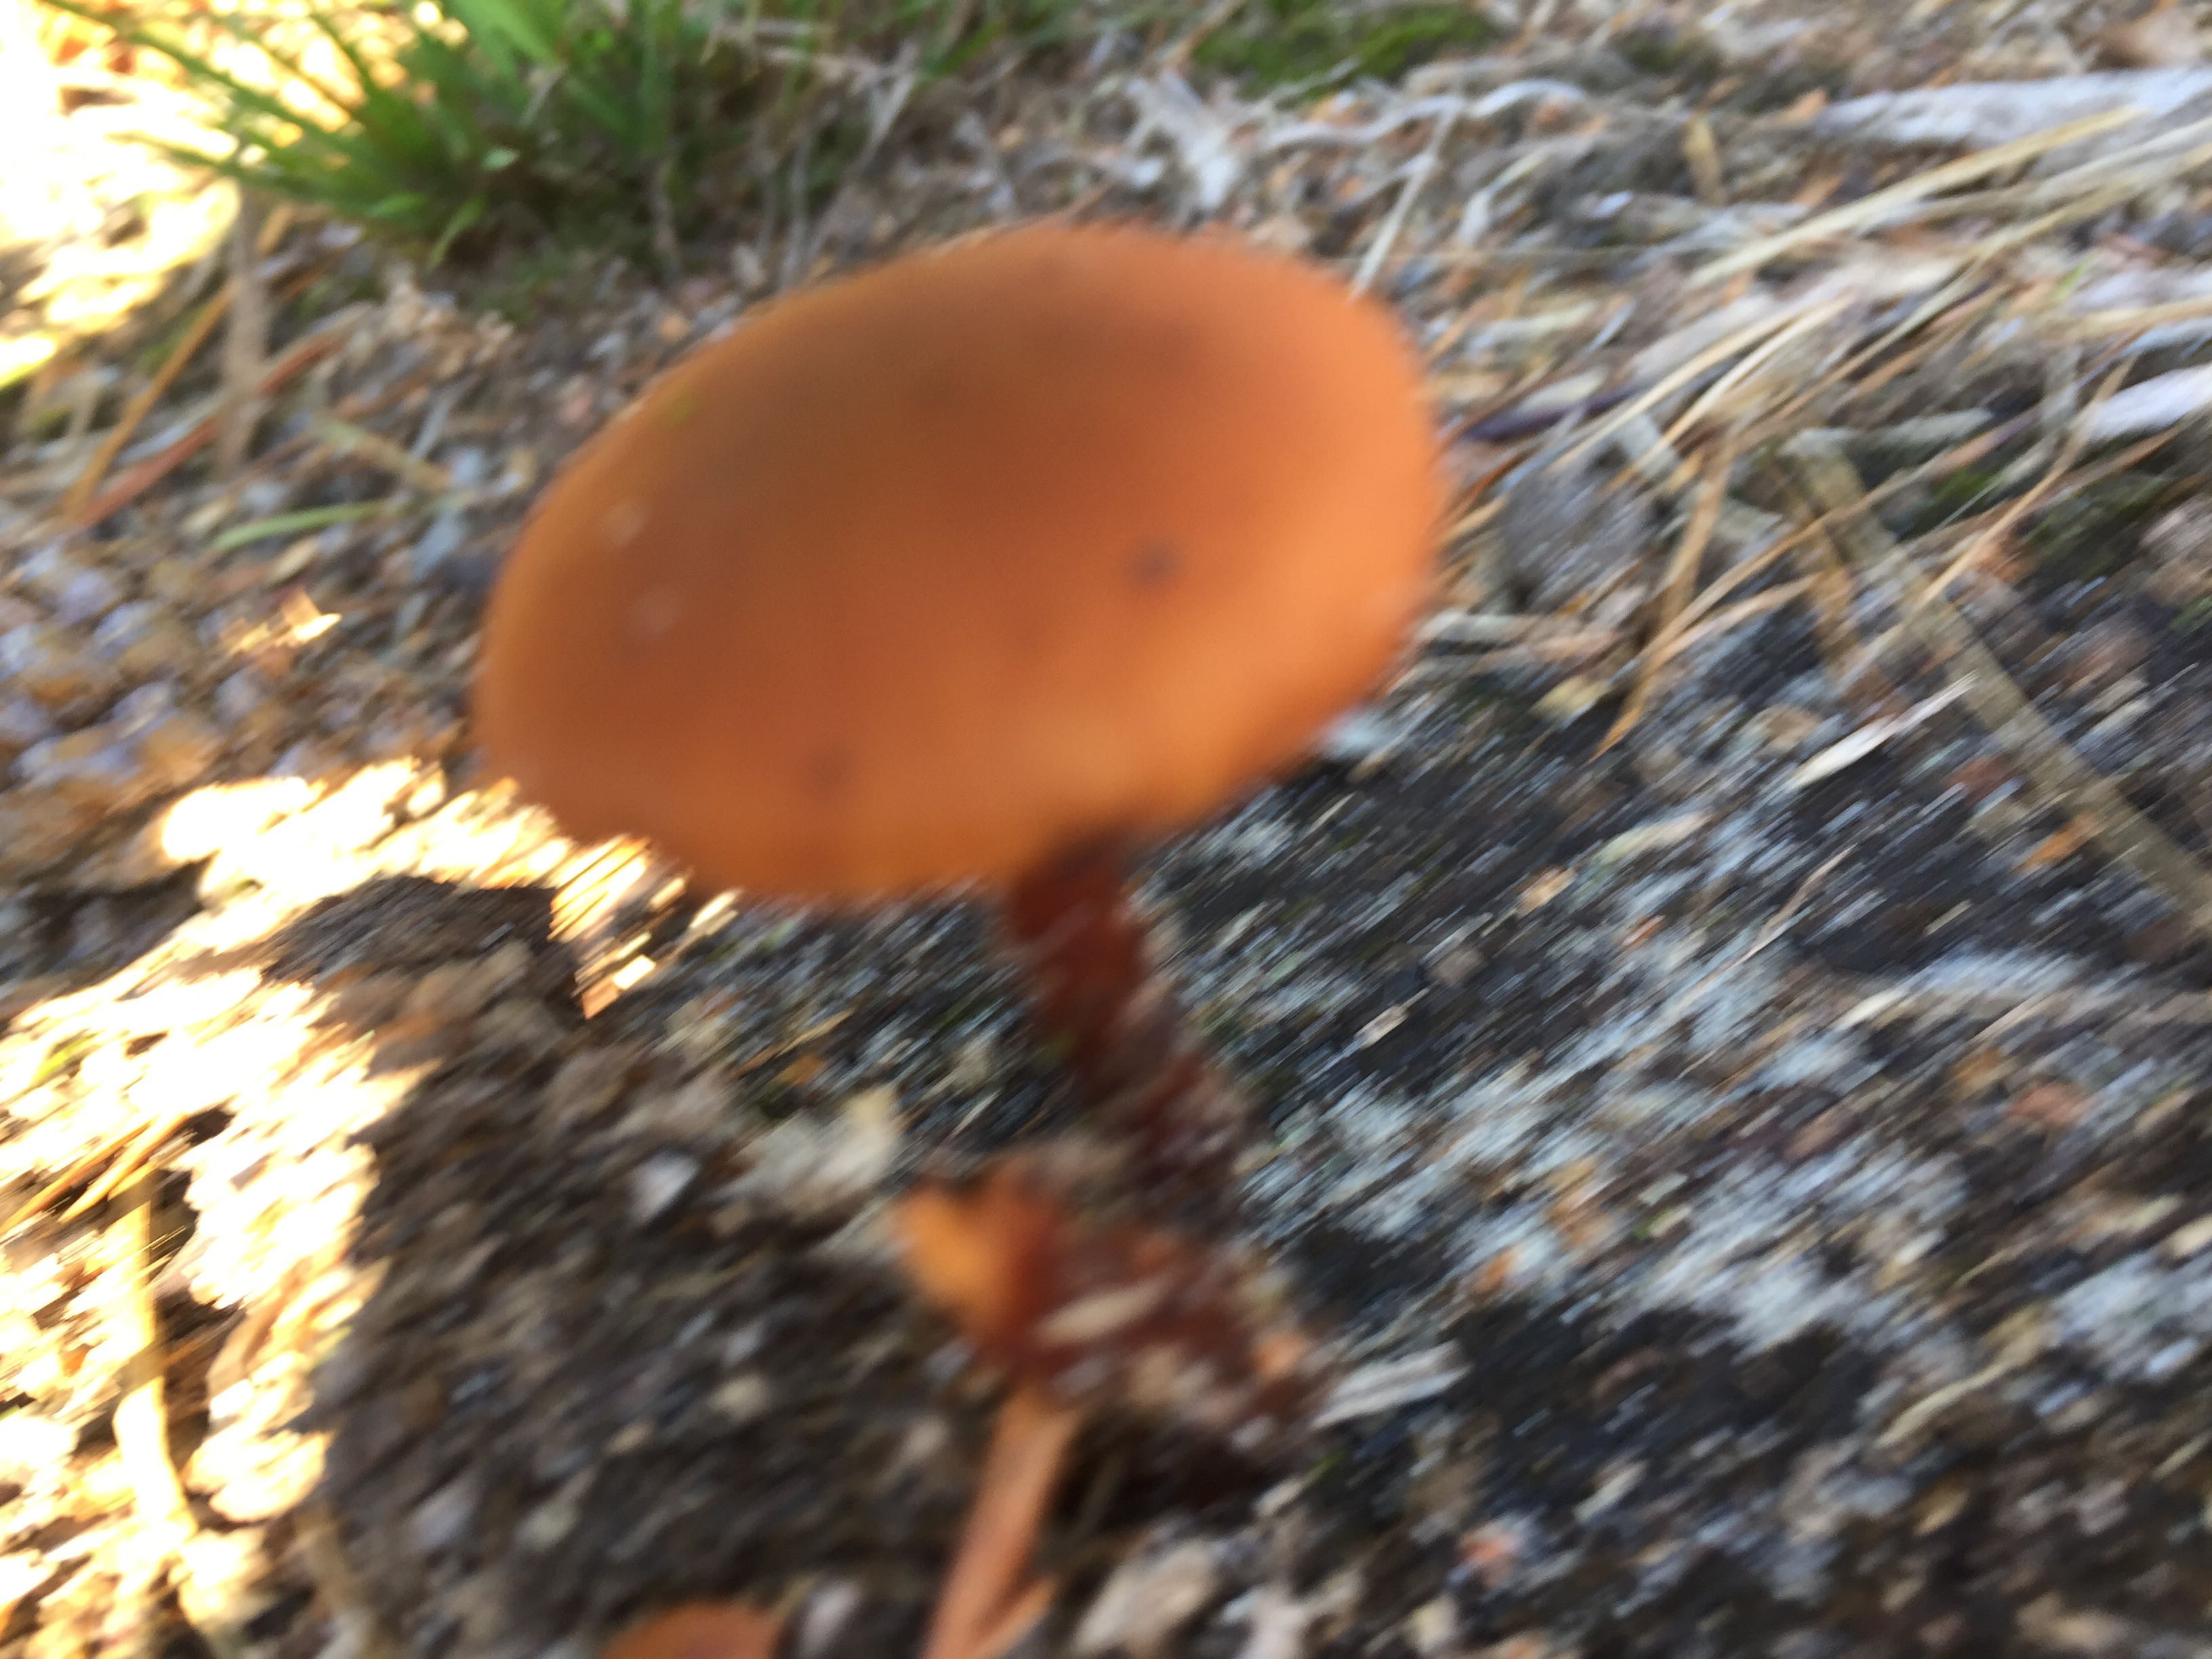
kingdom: Fungi
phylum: Basidiomycota
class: Agaricomycetes
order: Agaricales
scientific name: Agaricales
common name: champignonordenen
